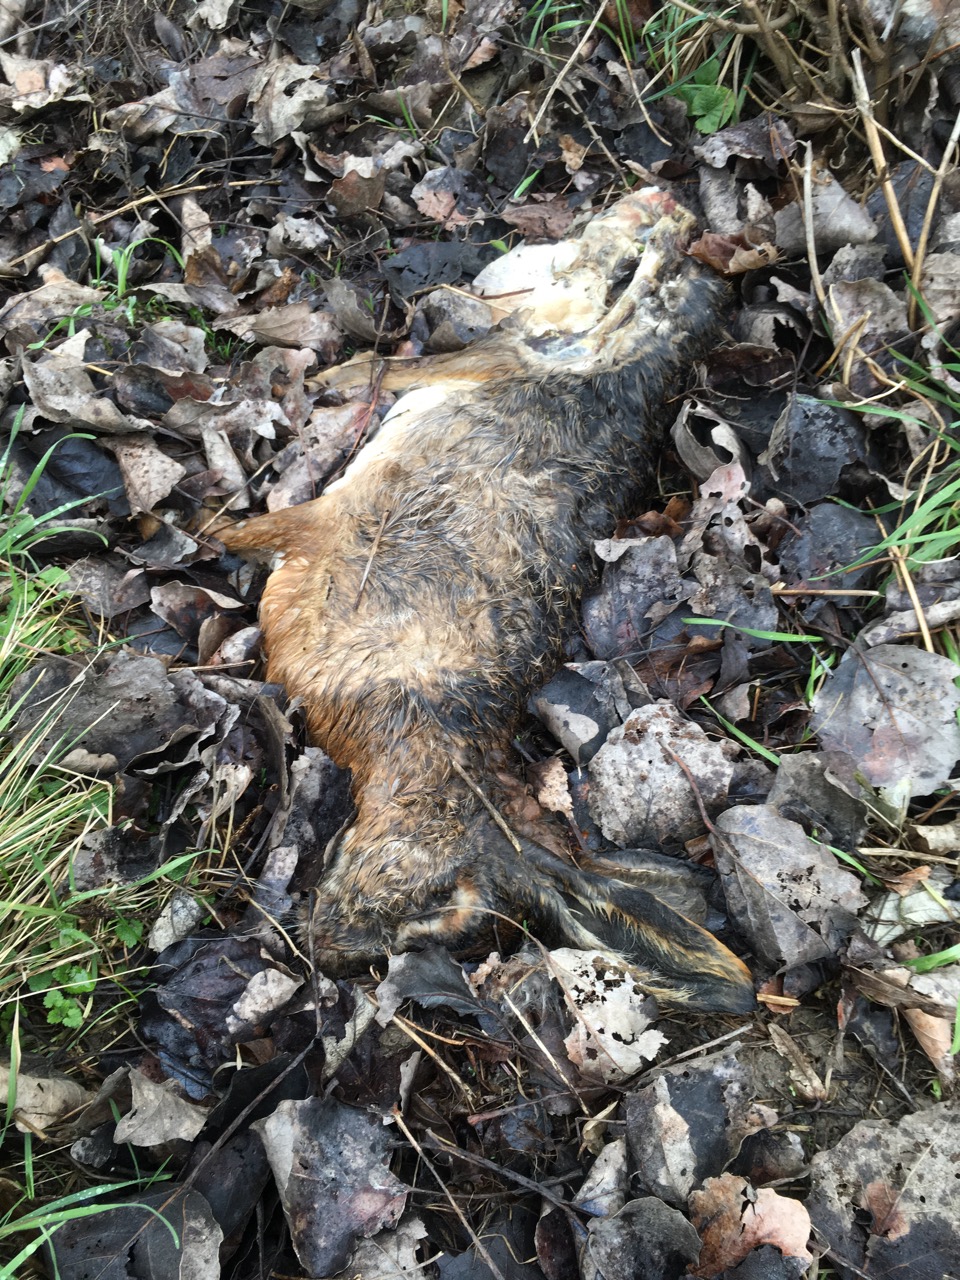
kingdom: Animalia
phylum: Chordata
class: Mammalia
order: Lagomorpha
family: Leporidae
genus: Lepus
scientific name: Lepus europaeus
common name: European hare
